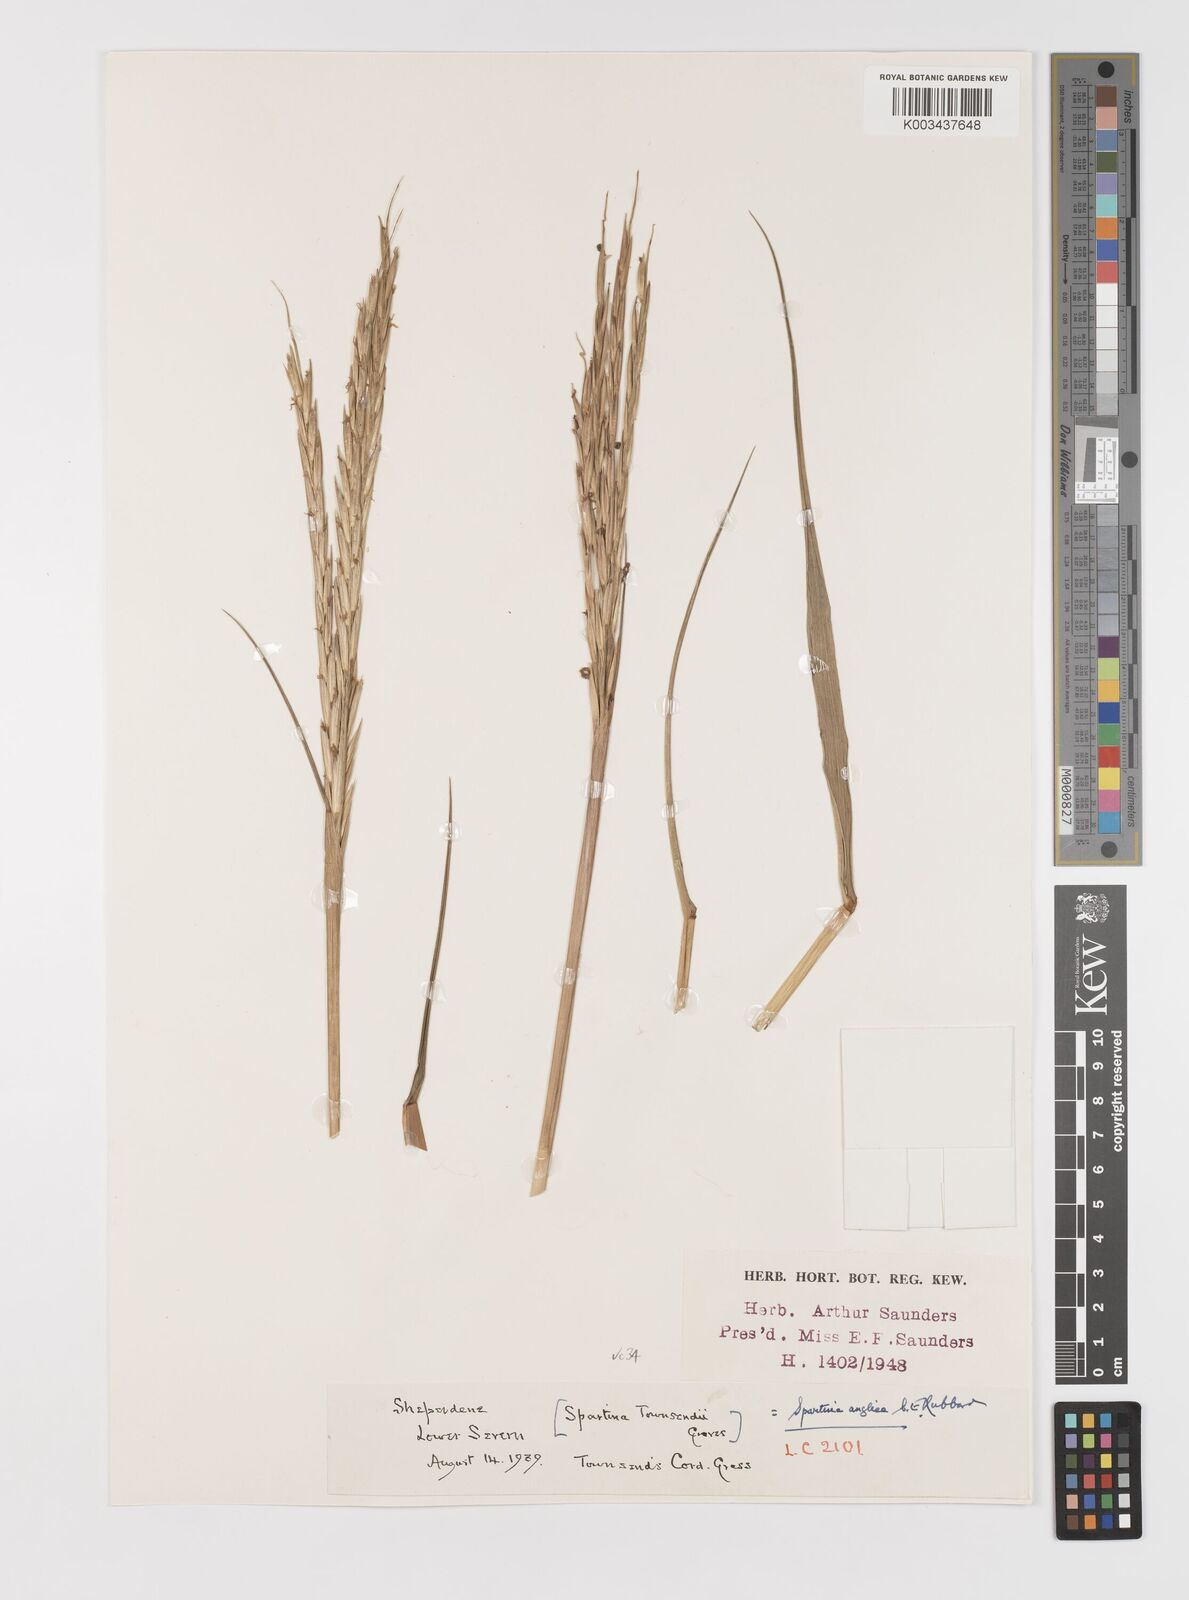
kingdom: Plantae
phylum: Tracheophyta
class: Liliopsida
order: Poales
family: Poaceae
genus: Sporobolus
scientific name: Sporobolus anglicus
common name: English cordgrass
